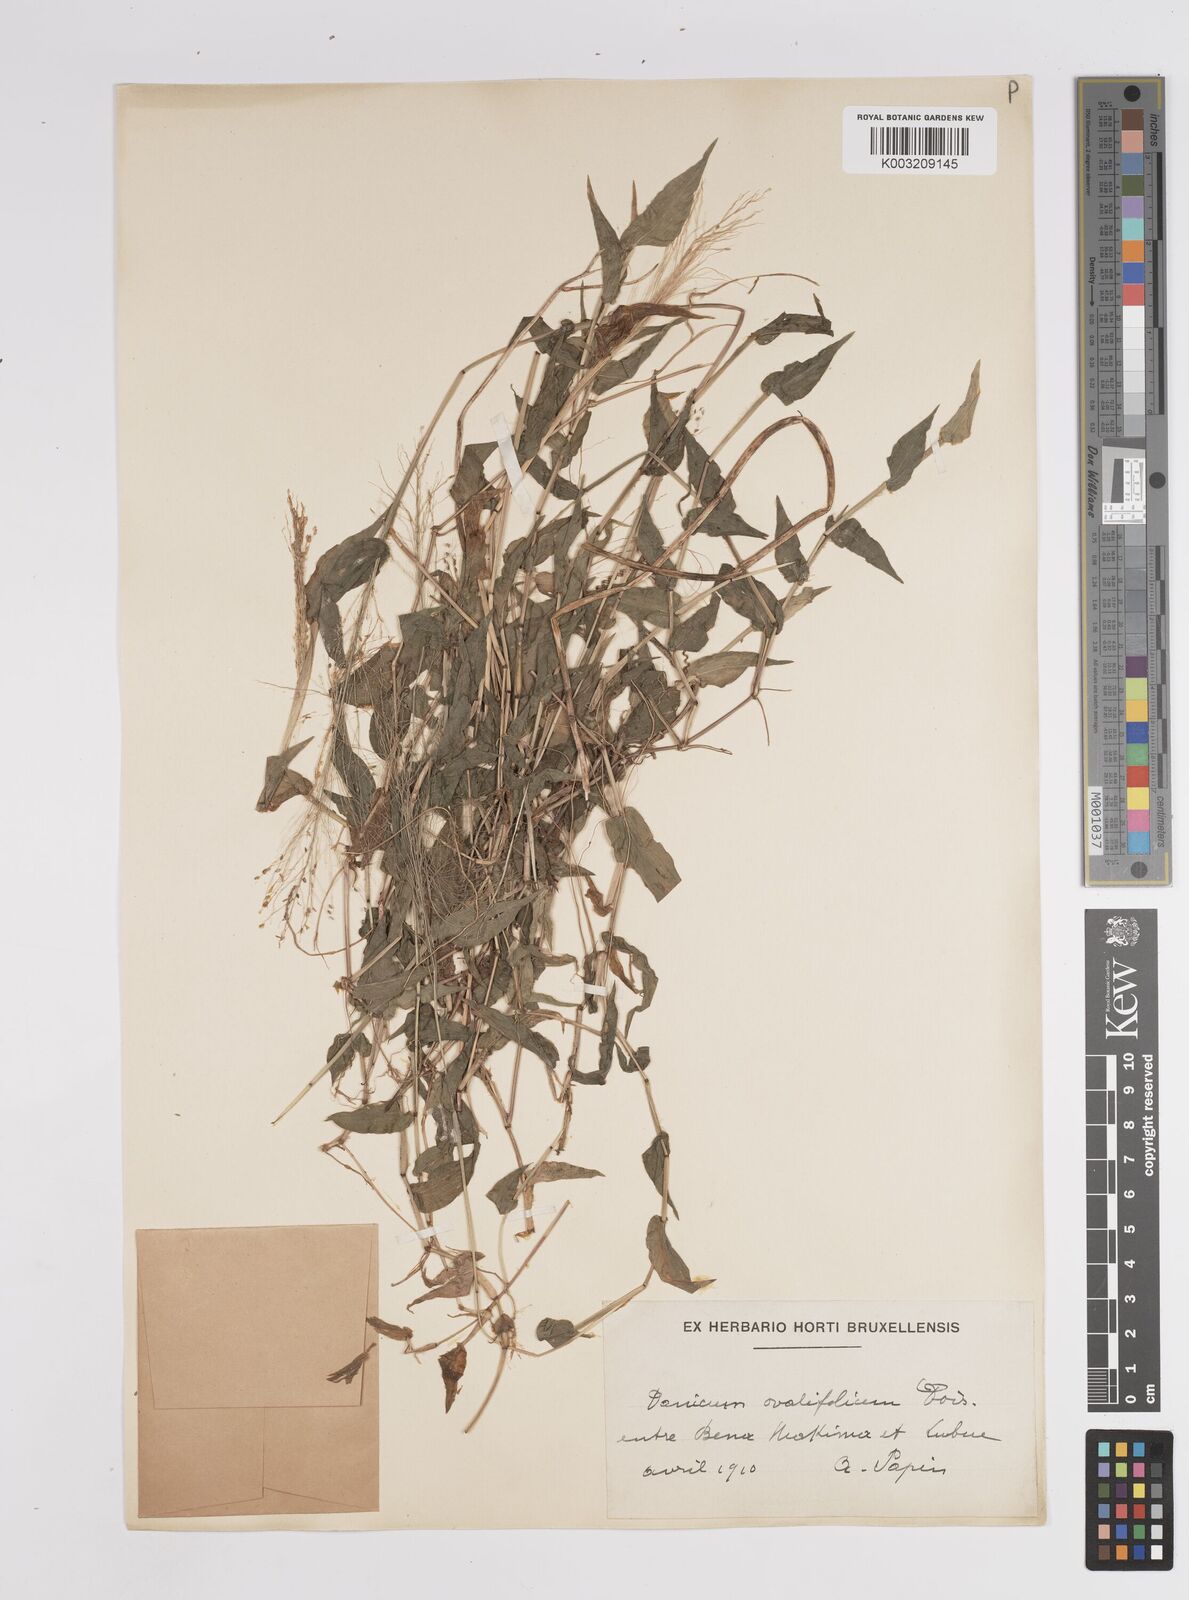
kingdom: Plantae
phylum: Tracheophyta
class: Liliopsida
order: Poales
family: Poaceae
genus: Panicum
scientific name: Panicum brevifolium
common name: Shortleaf panic grass
